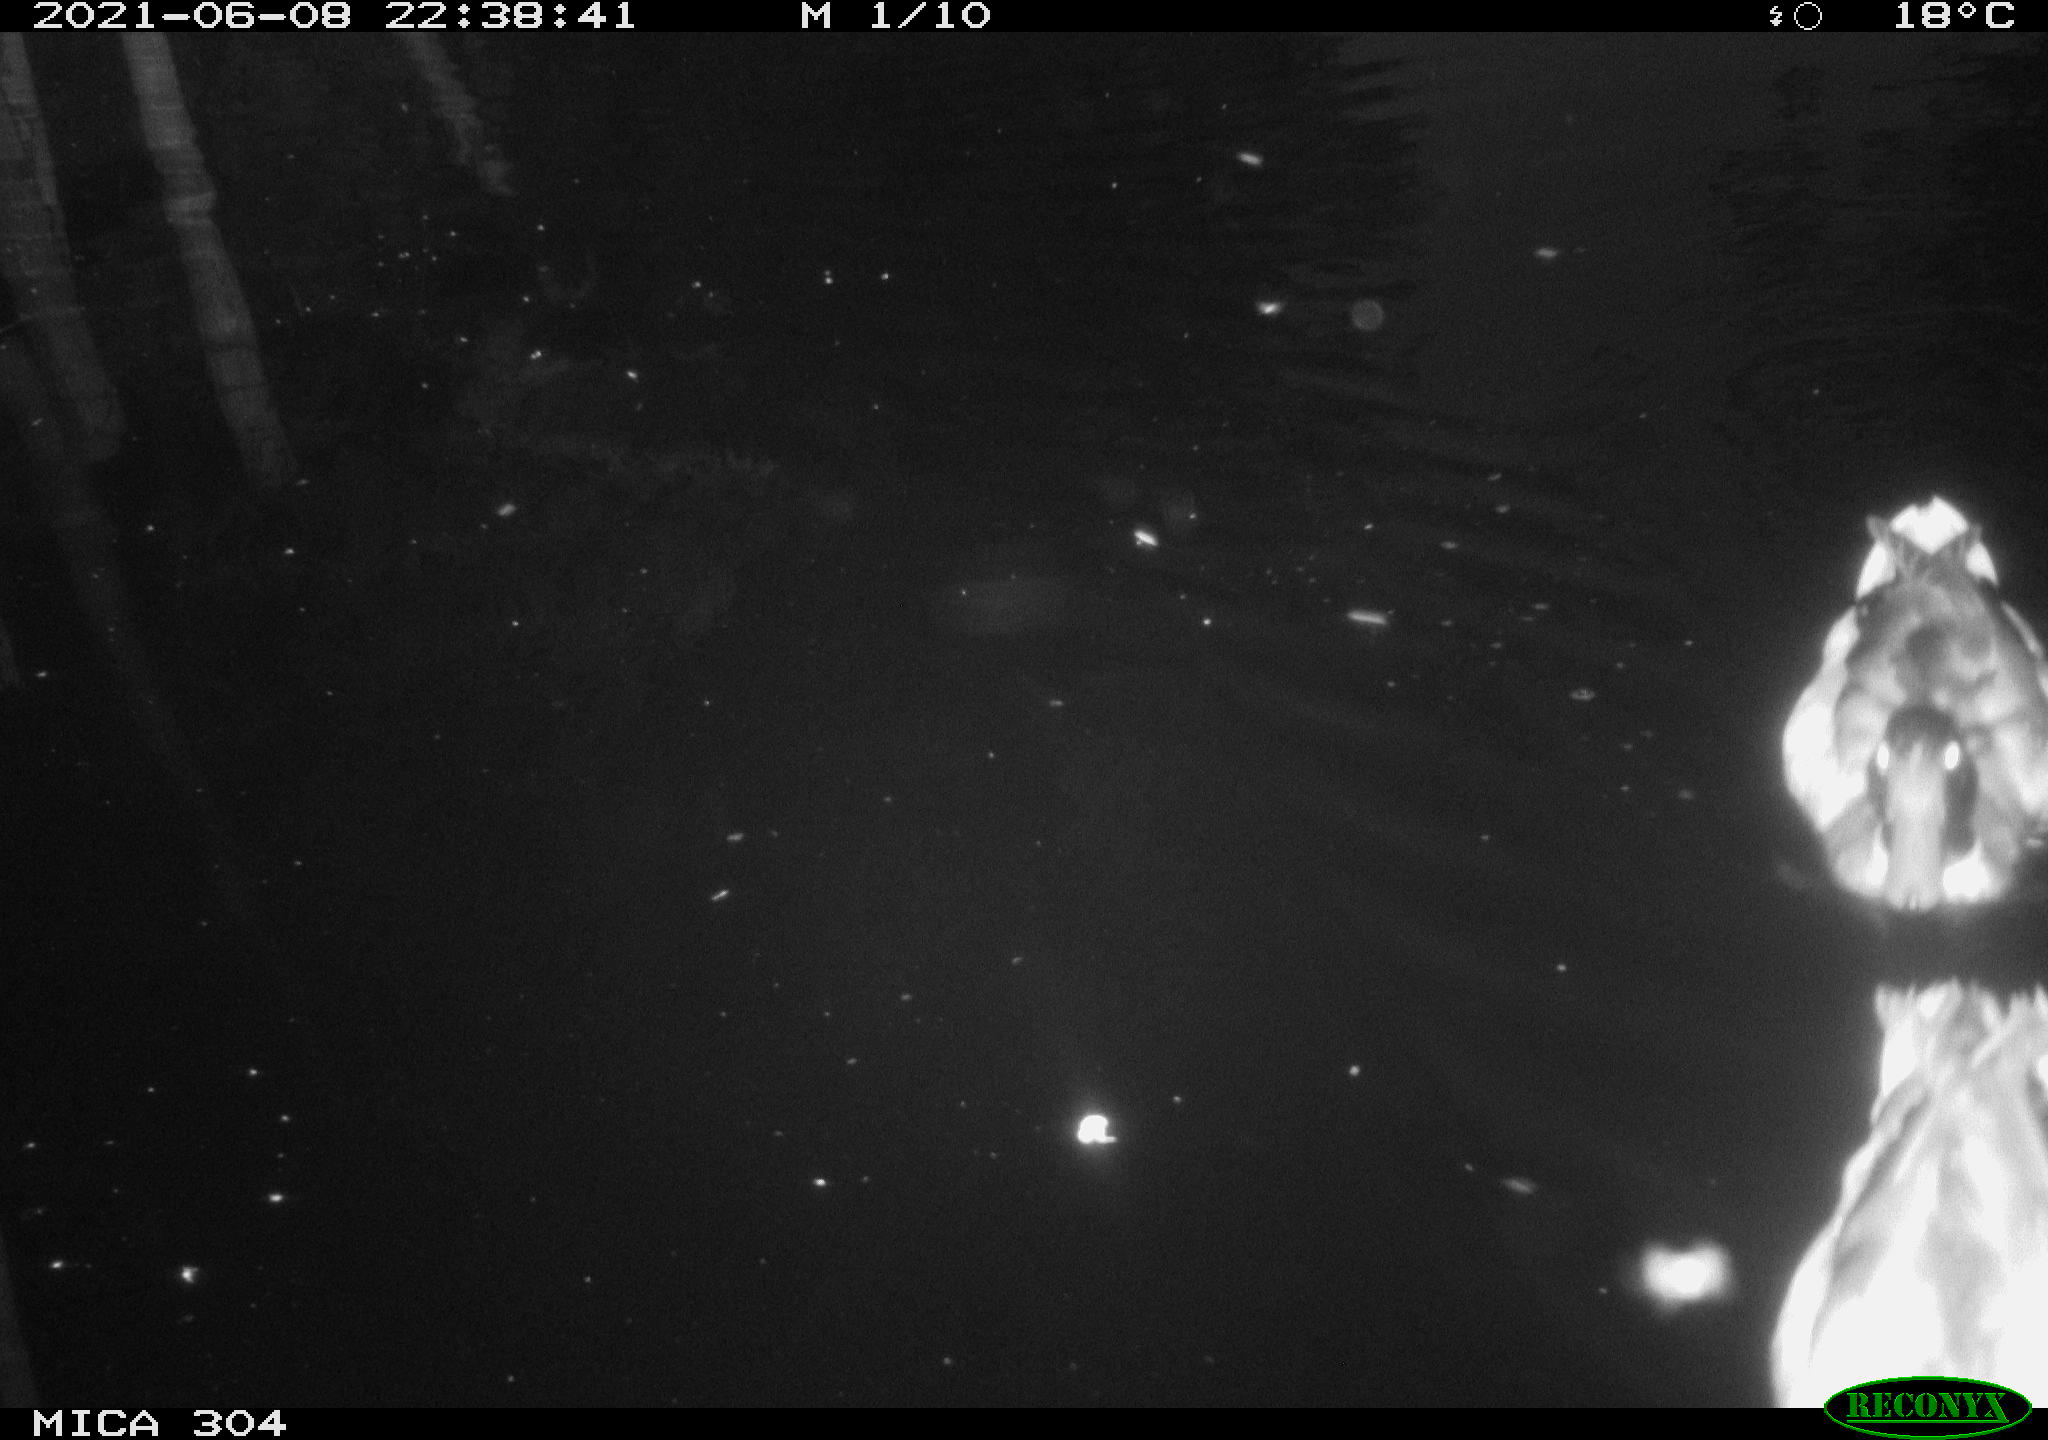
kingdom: Animalia
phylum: Chordata
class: Aves
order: Anseriformes
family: Anatidae
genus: Anas
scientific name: Anas platyrhynchos
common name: Mallard
